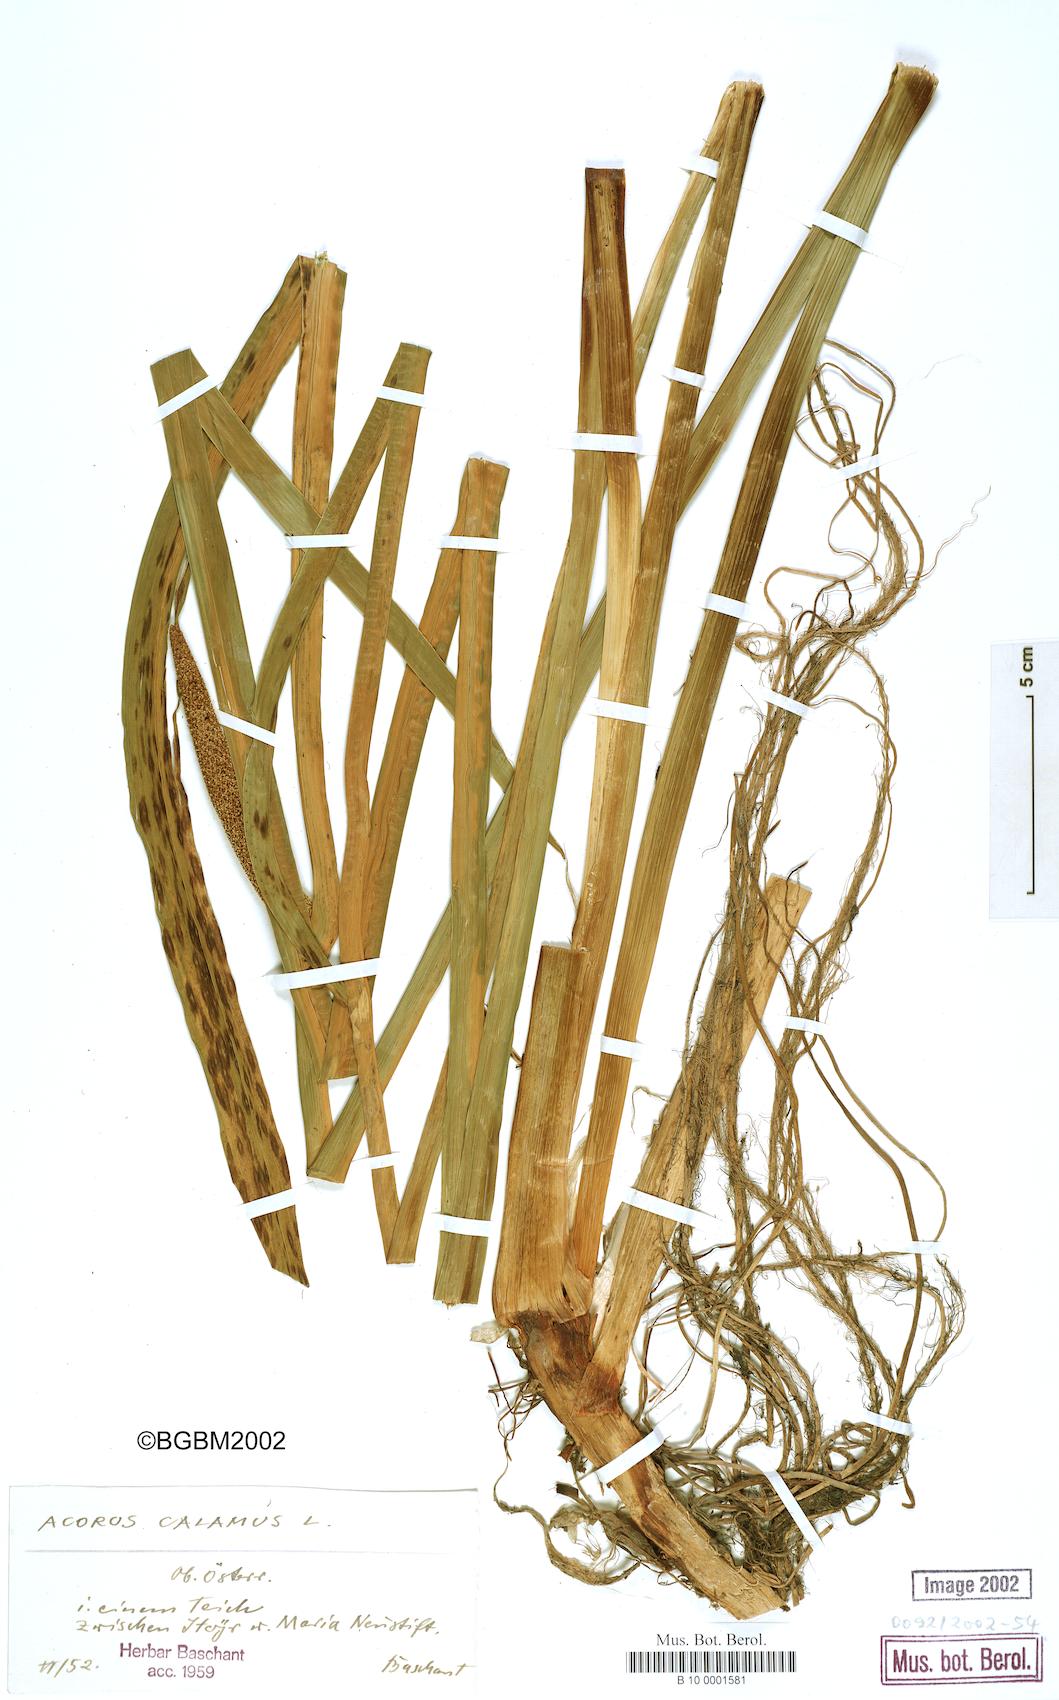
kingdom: Plantae
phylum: Tracheophyta
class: Liliopsida
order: Acorales
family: Acoraceae
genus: Acorus
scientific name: Acorus calamus
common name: Sweet-flag
